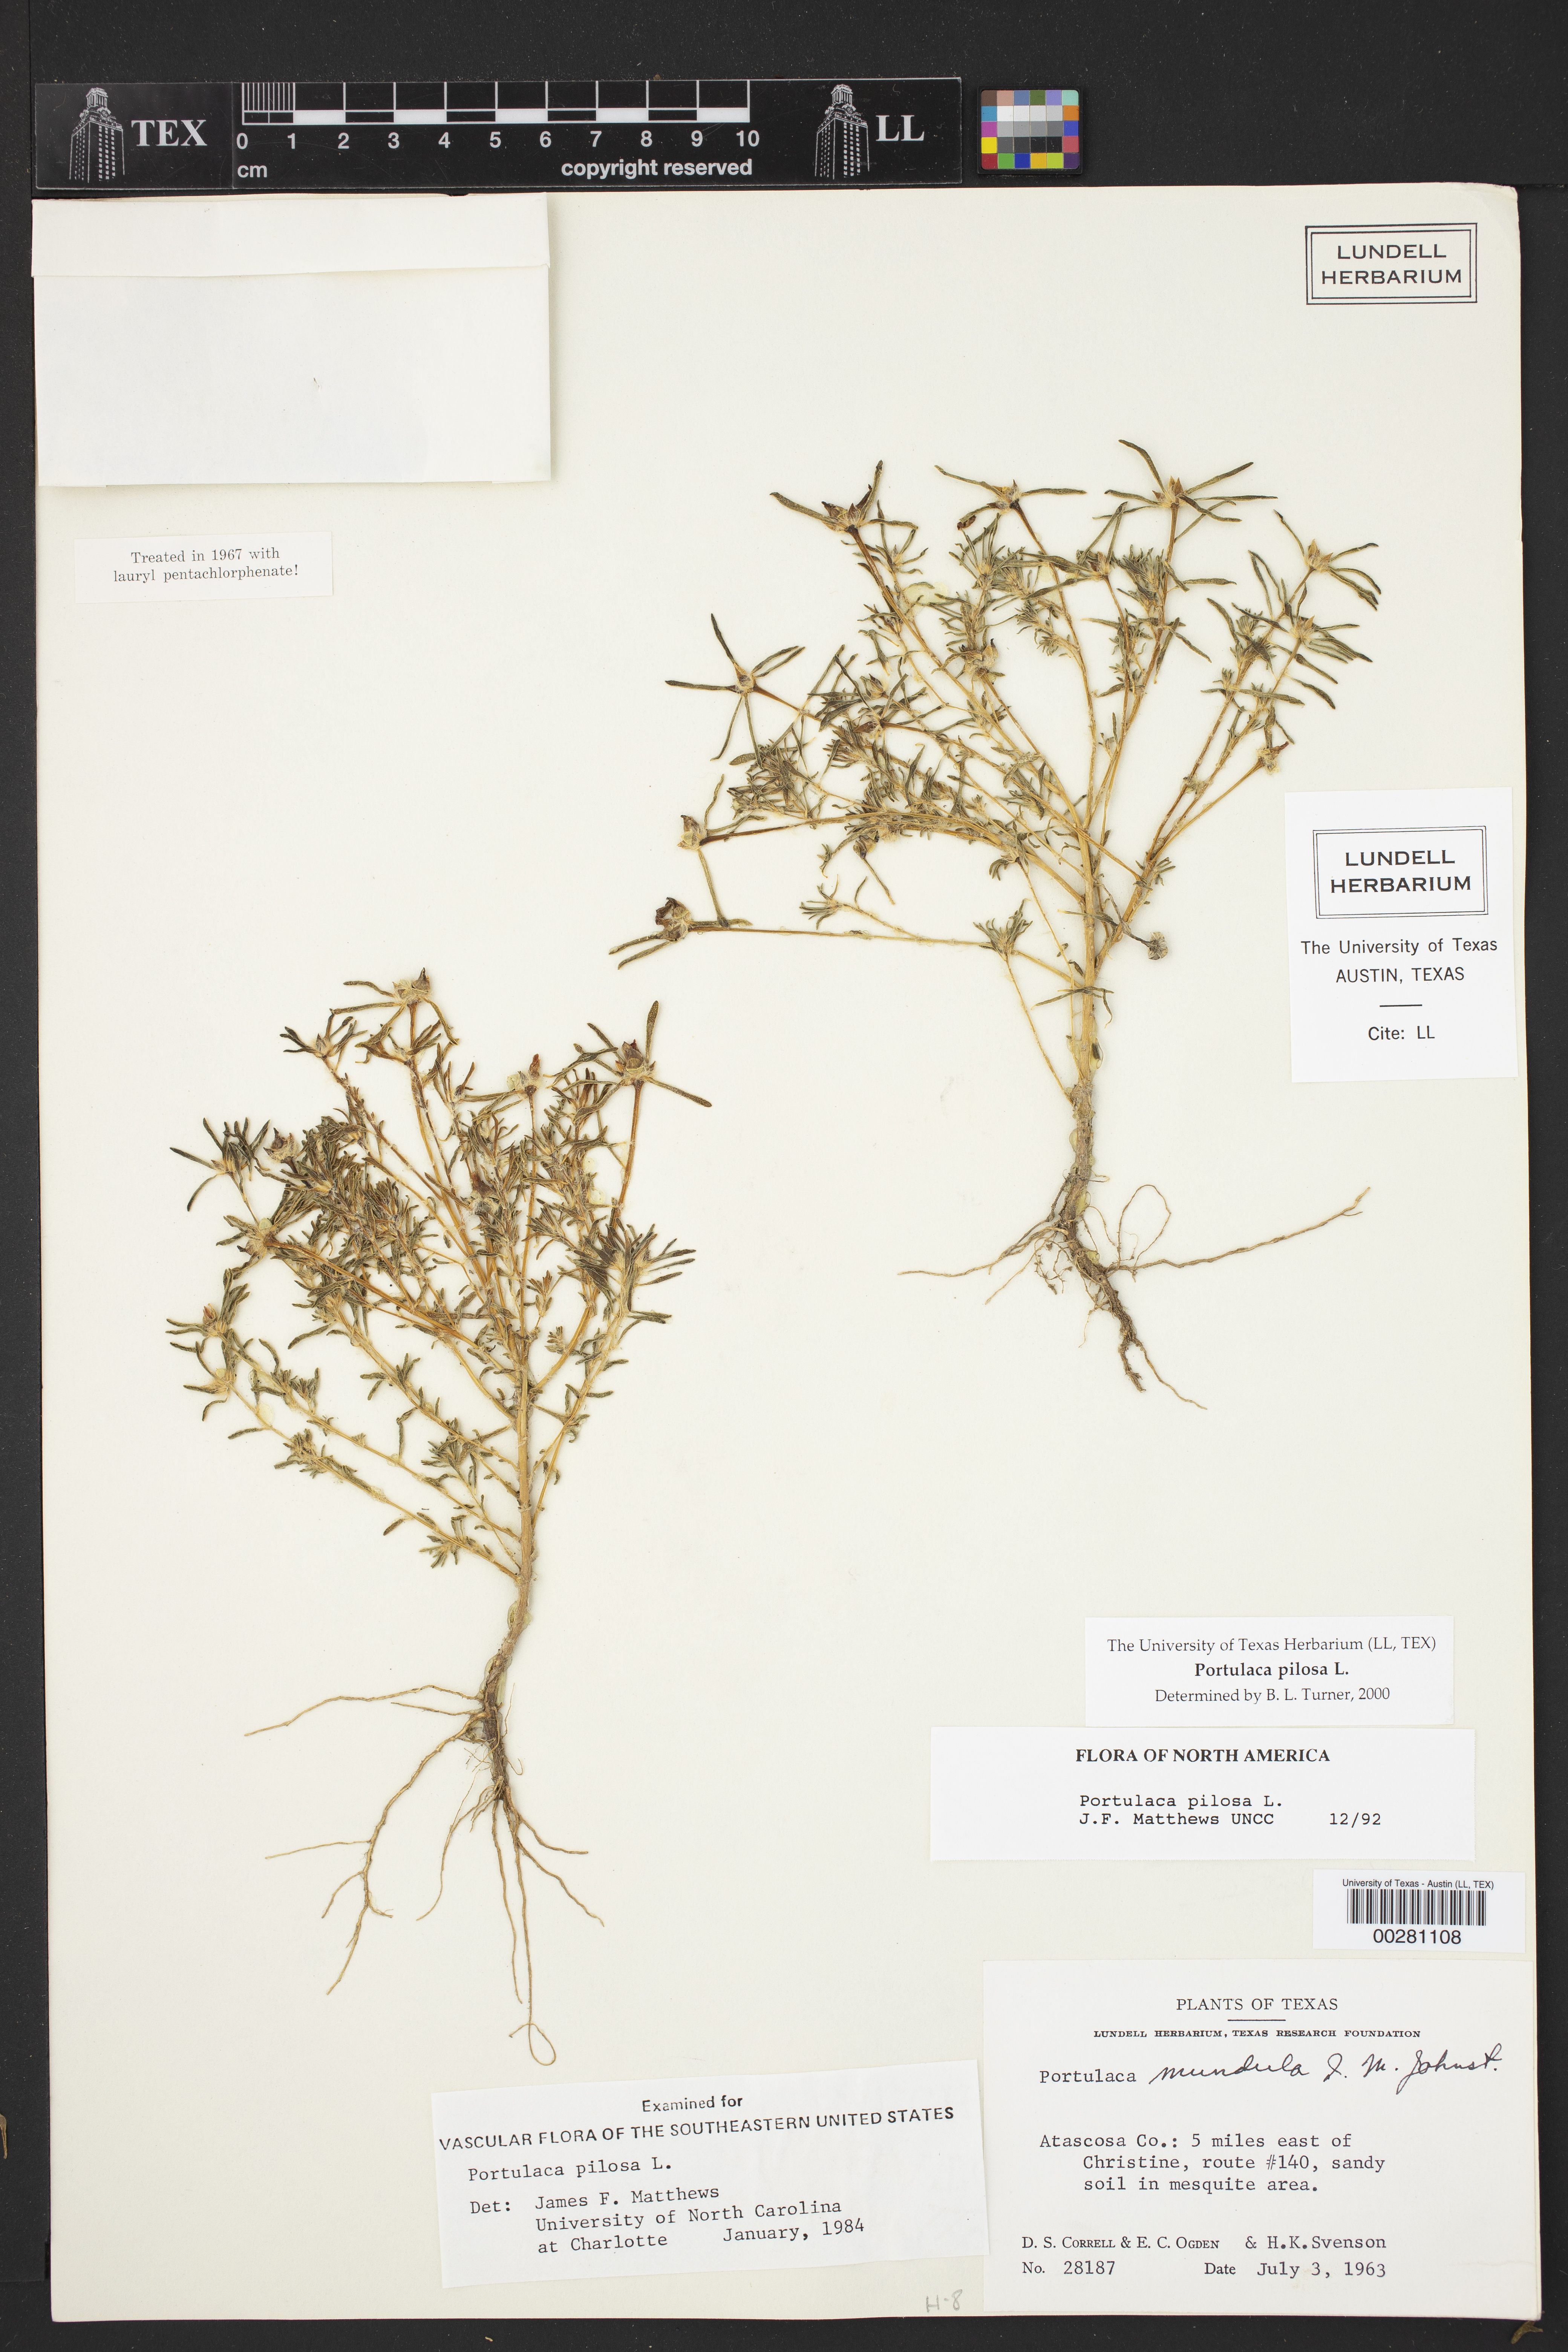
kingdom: Plantae
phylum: Tracheophyta
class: Magnoliopsida
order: Caryophyllales
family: Portulacaceae
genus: Portulaca
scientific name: Portulaca pilosa
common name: Kiss me quick
